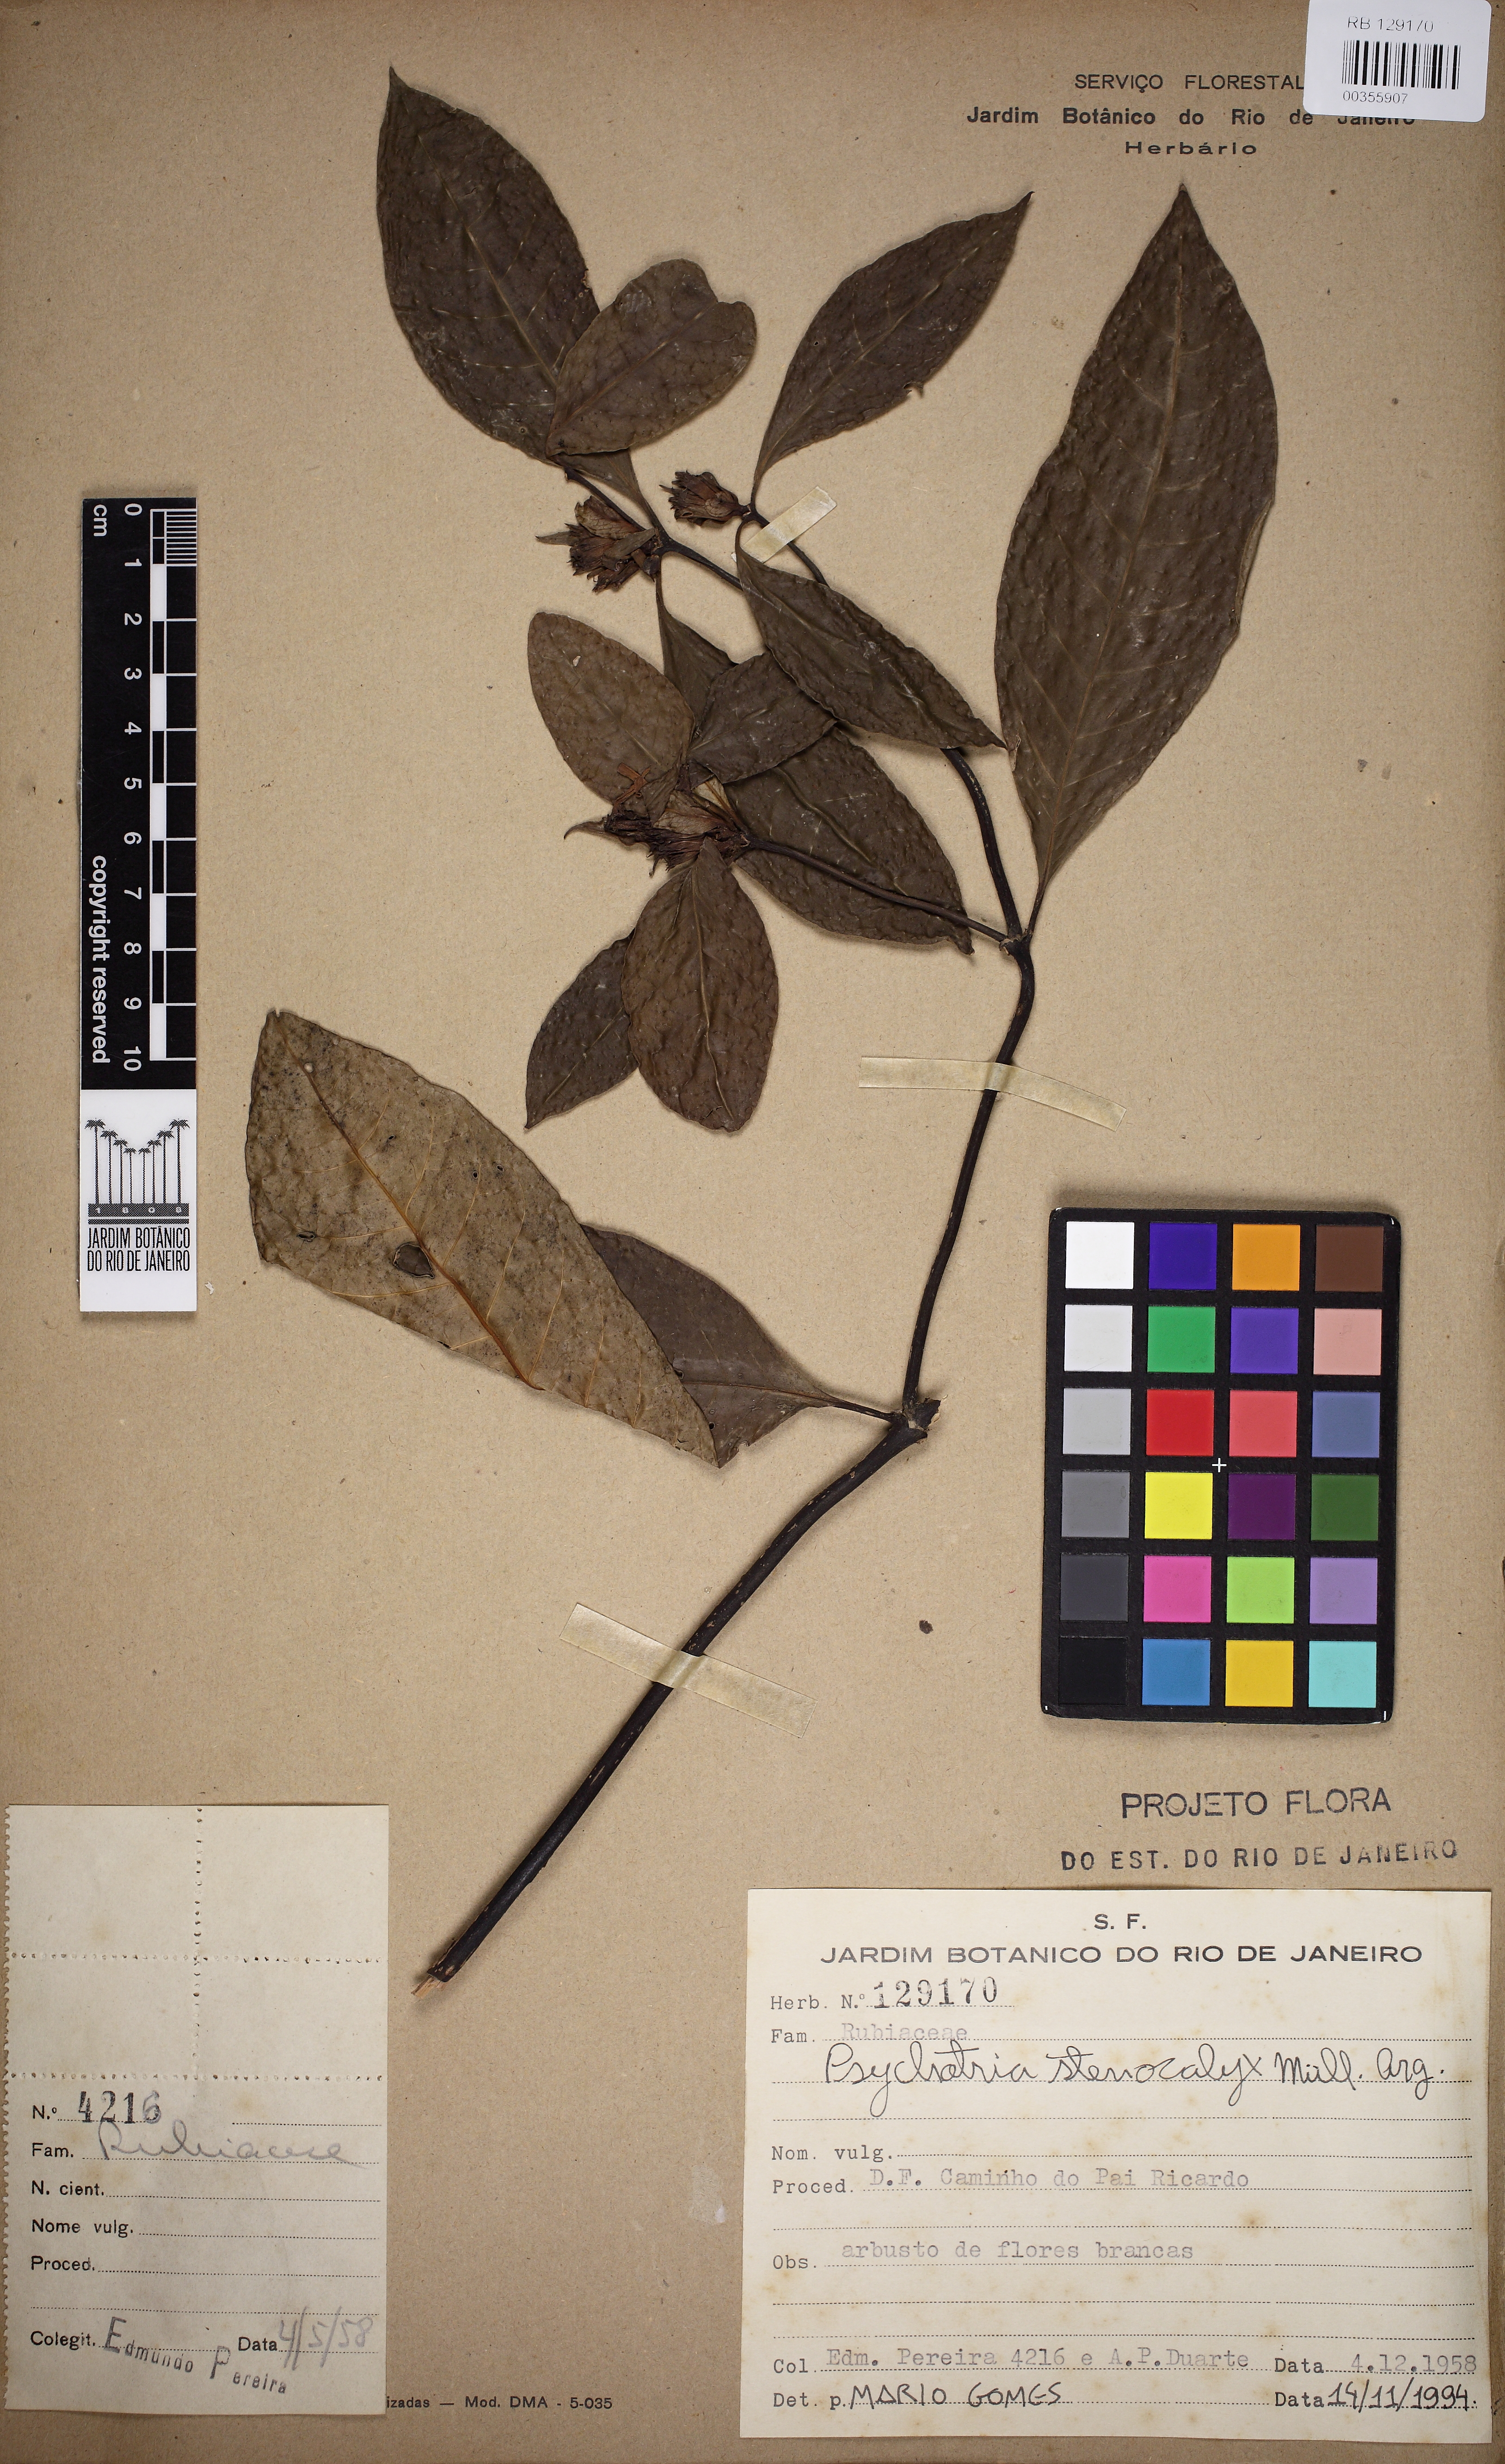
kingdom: Plantae
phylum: Tracheophyta
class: Magnoliopsida
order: Gentianales
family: Rubiaceae
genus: Psychotria
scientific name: Psychotria stenocalyx
